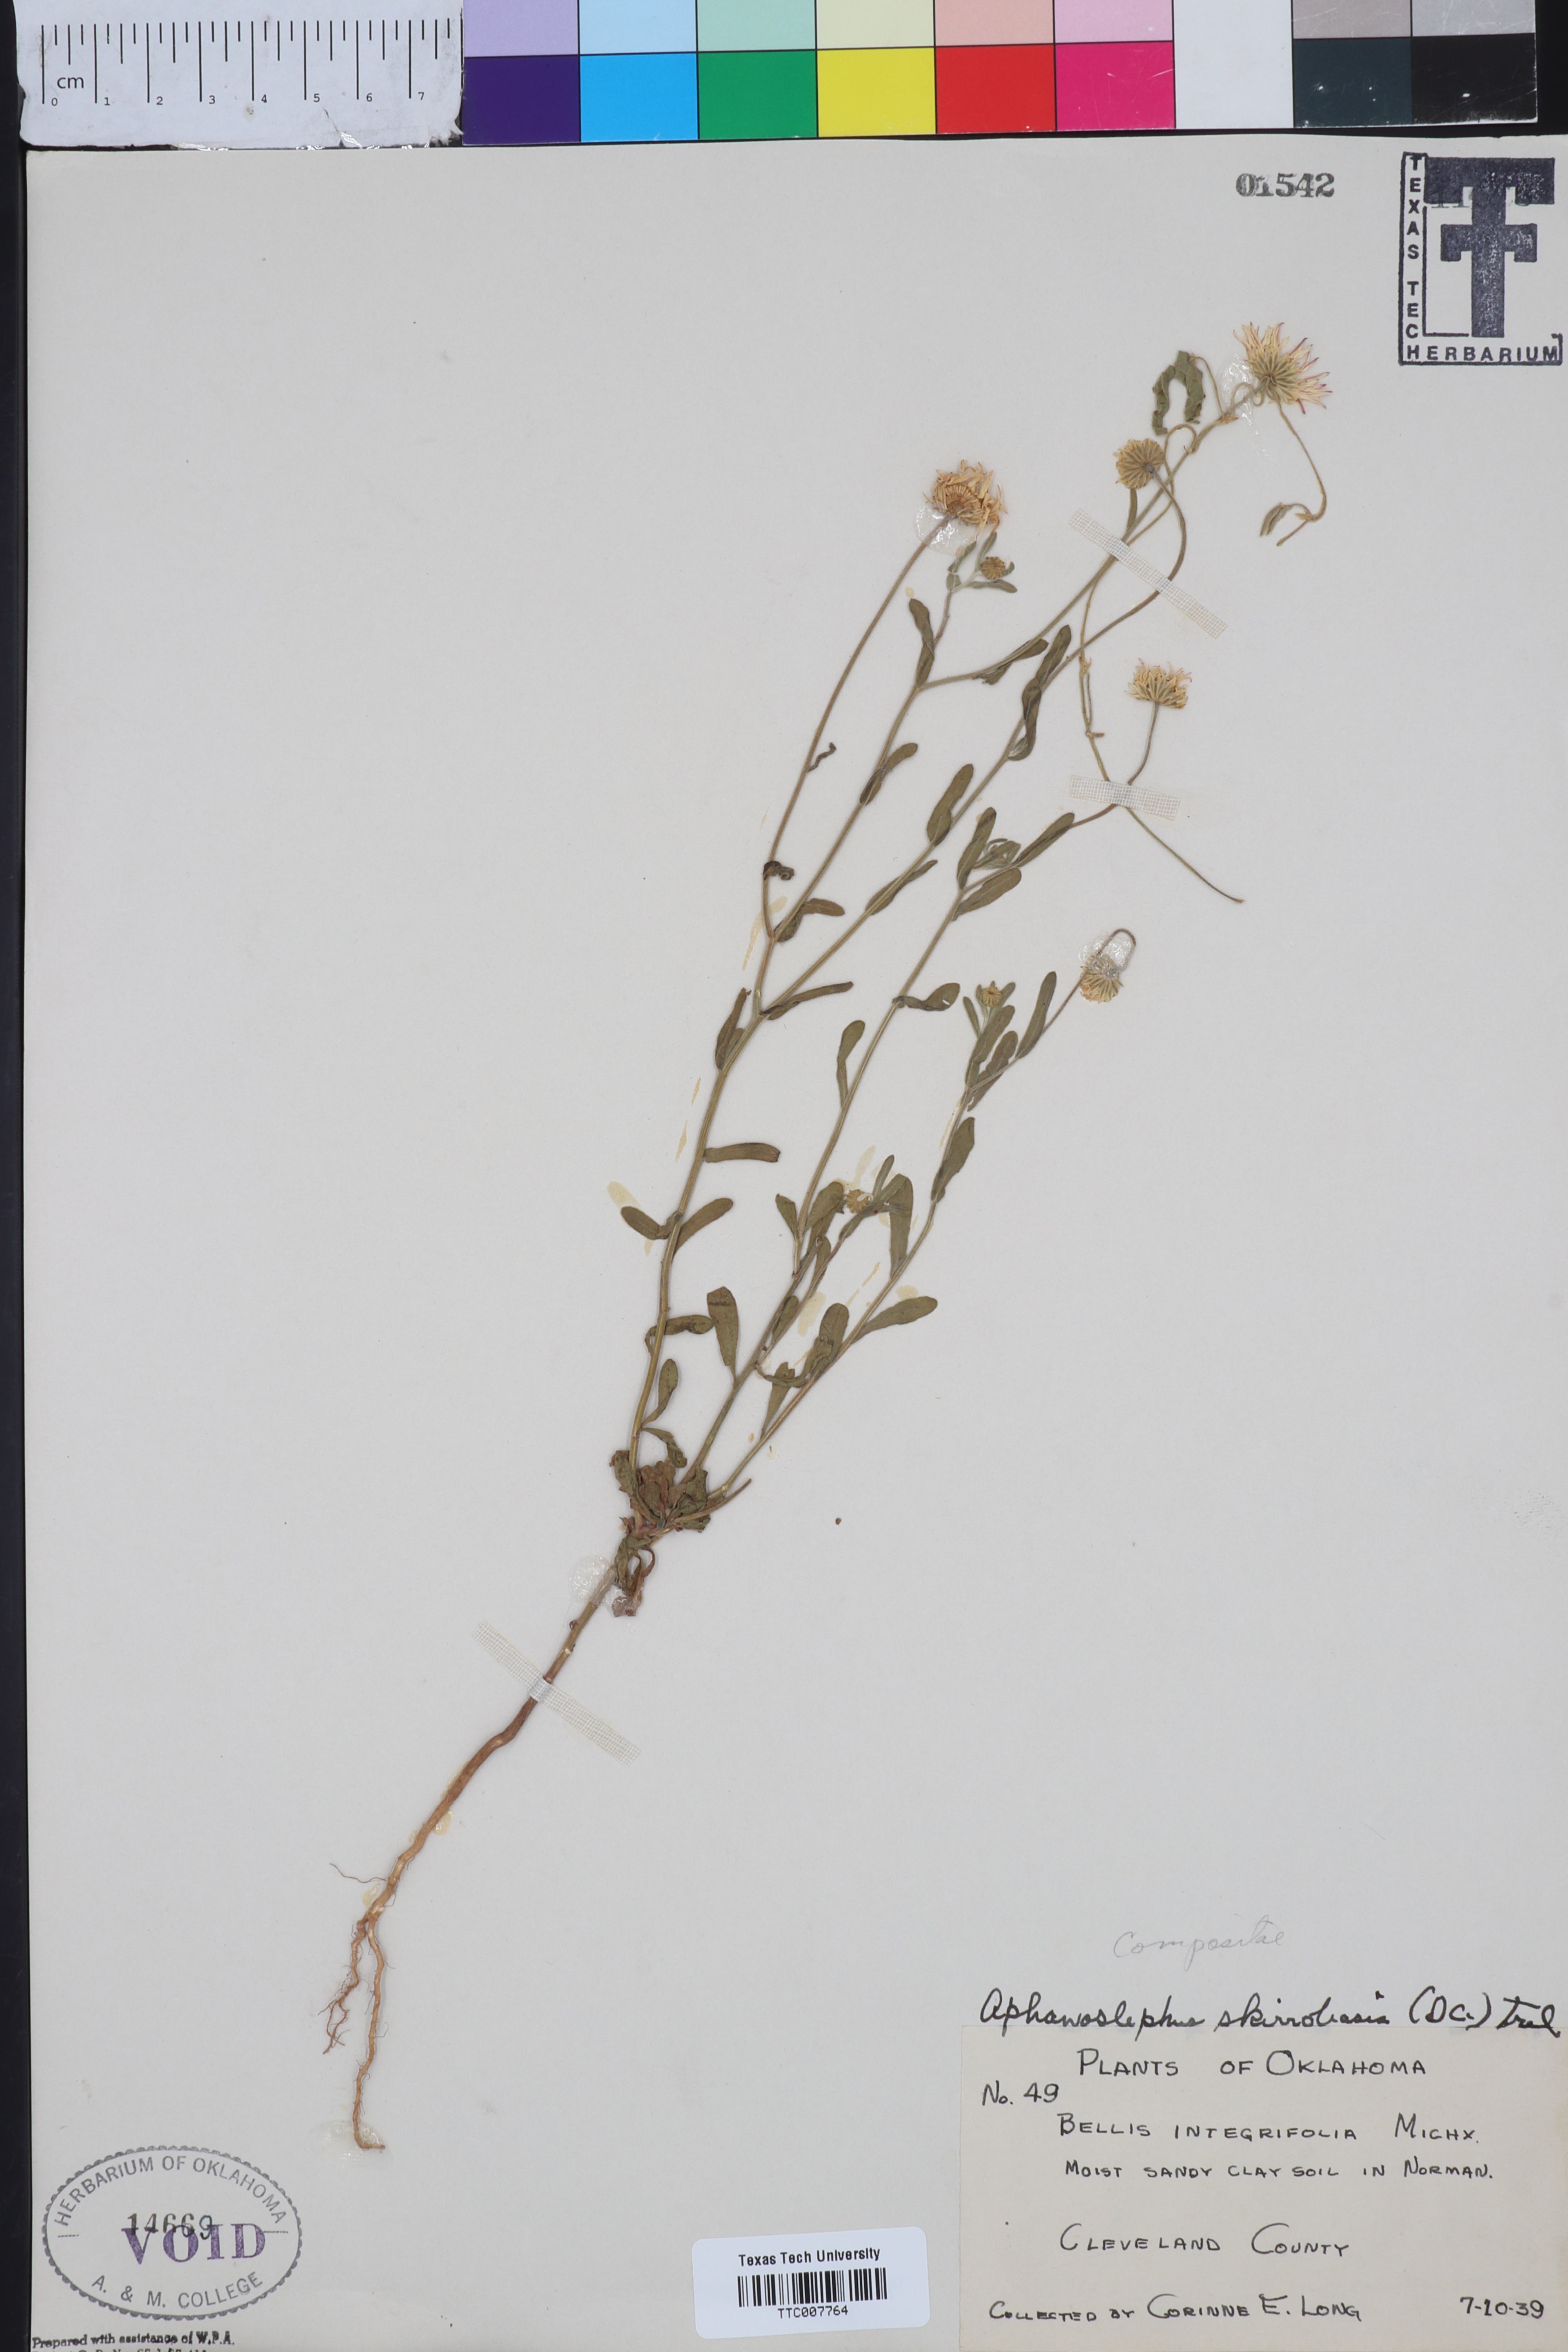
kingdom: Plantae
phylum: Tracheophyta
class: Magnoliopsida
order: Asterales
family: Asteraceae
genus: Aphanostephus
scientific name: Aphanostephus skirrhobasis
